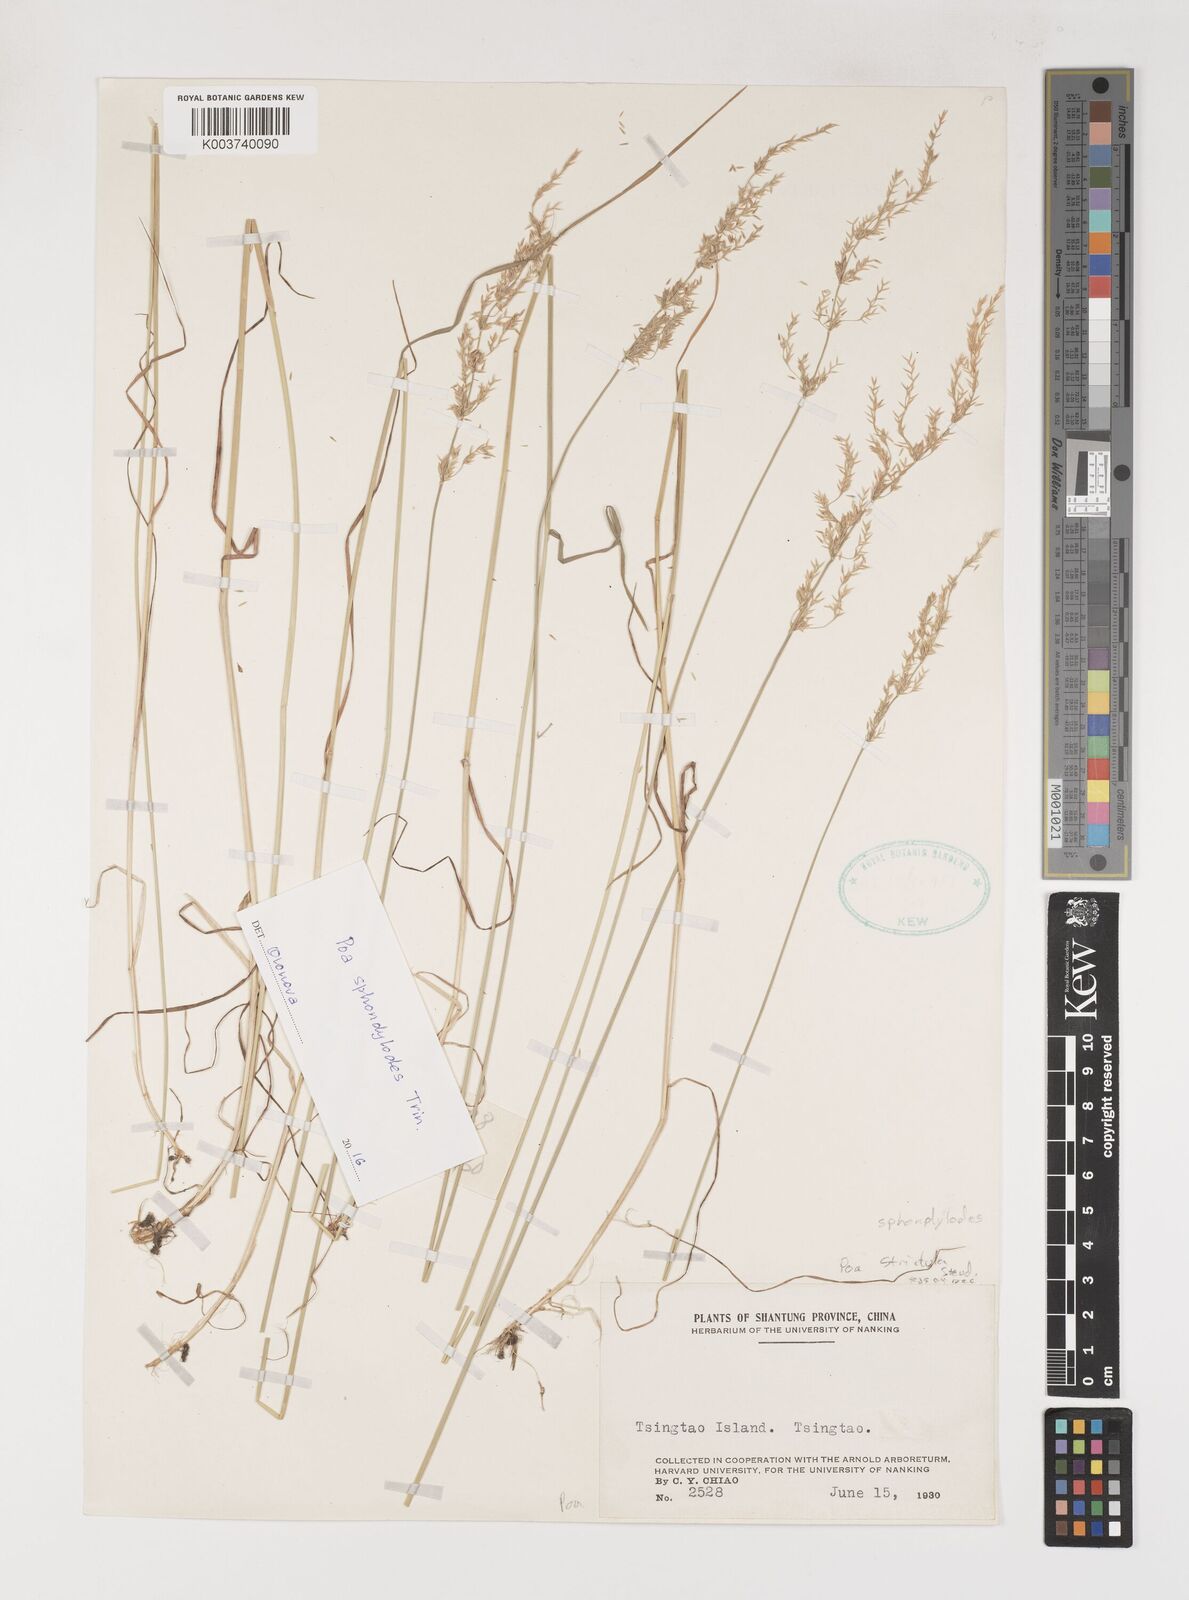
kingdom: Plantae
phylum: Tracheophyta
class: Liliopsida
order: Poales
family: Poaceae
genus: Poa
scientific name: Poa
